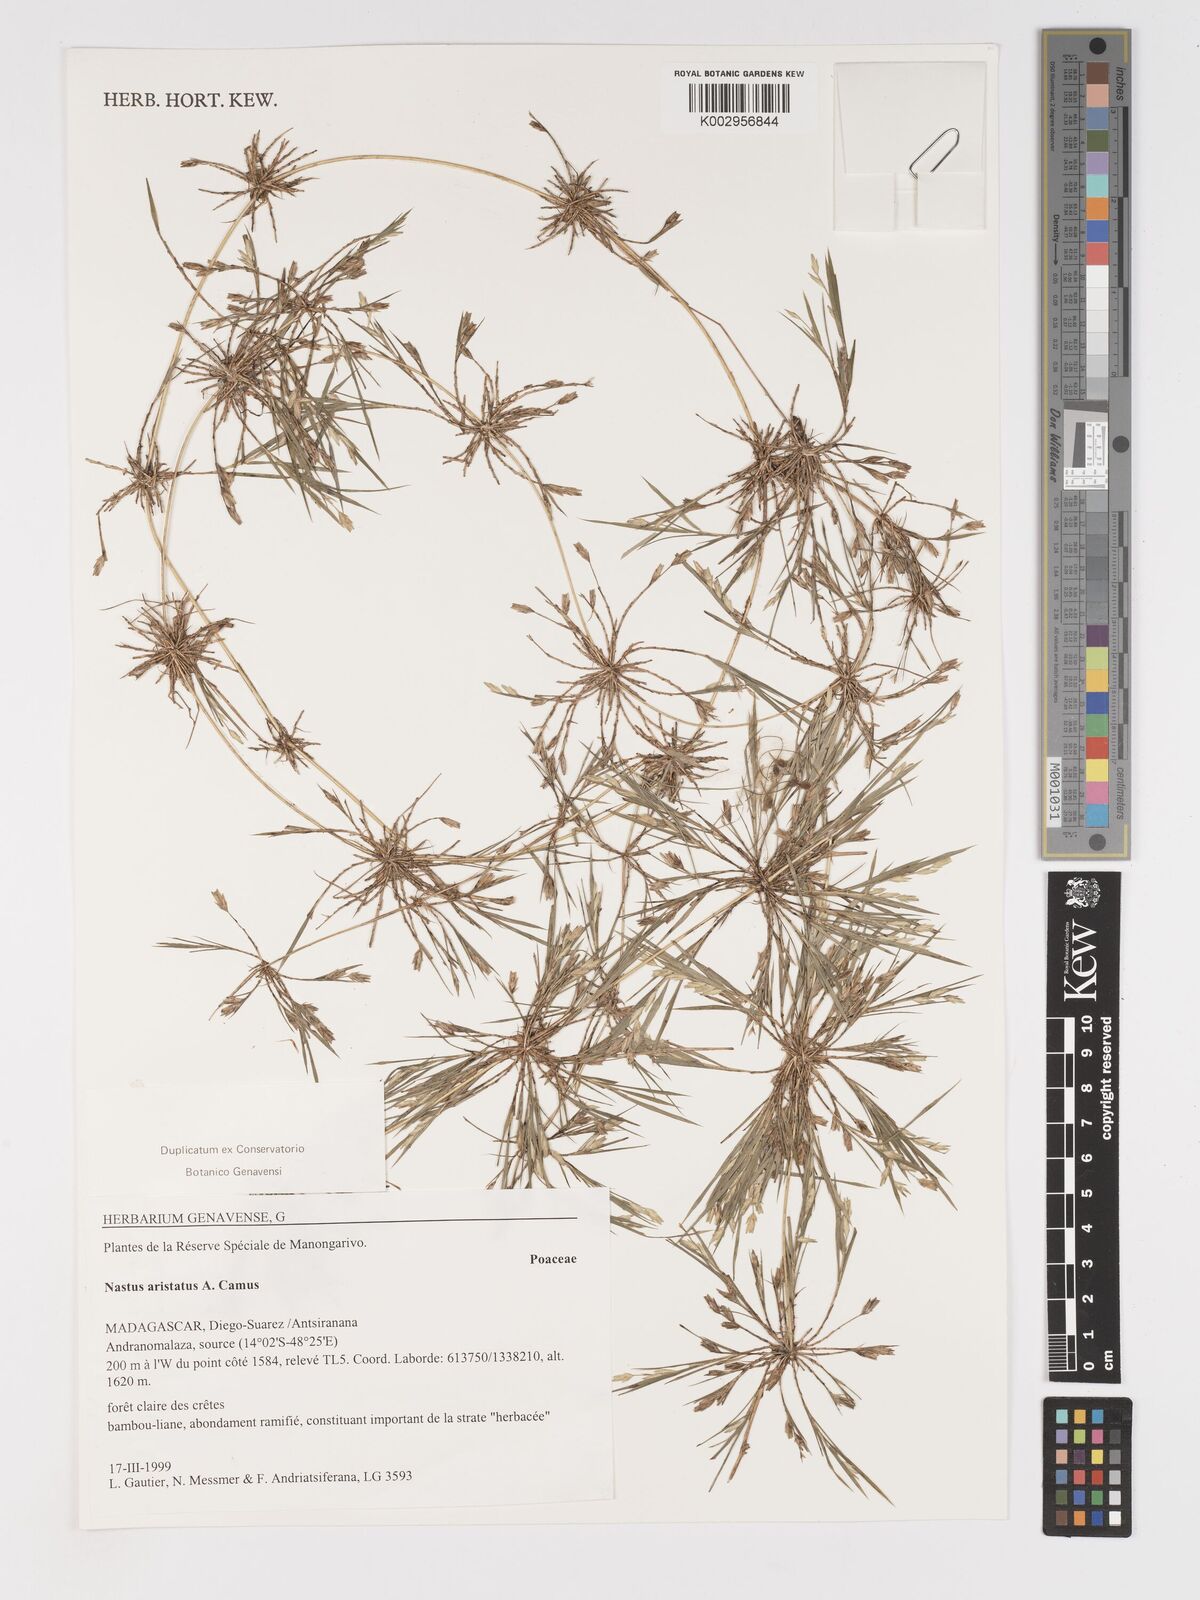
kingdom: Plantae
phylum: Tracheophyta
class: Liliopsida
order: Poales
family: Poaceae
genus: Nastus
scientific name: Nastus aristatus
